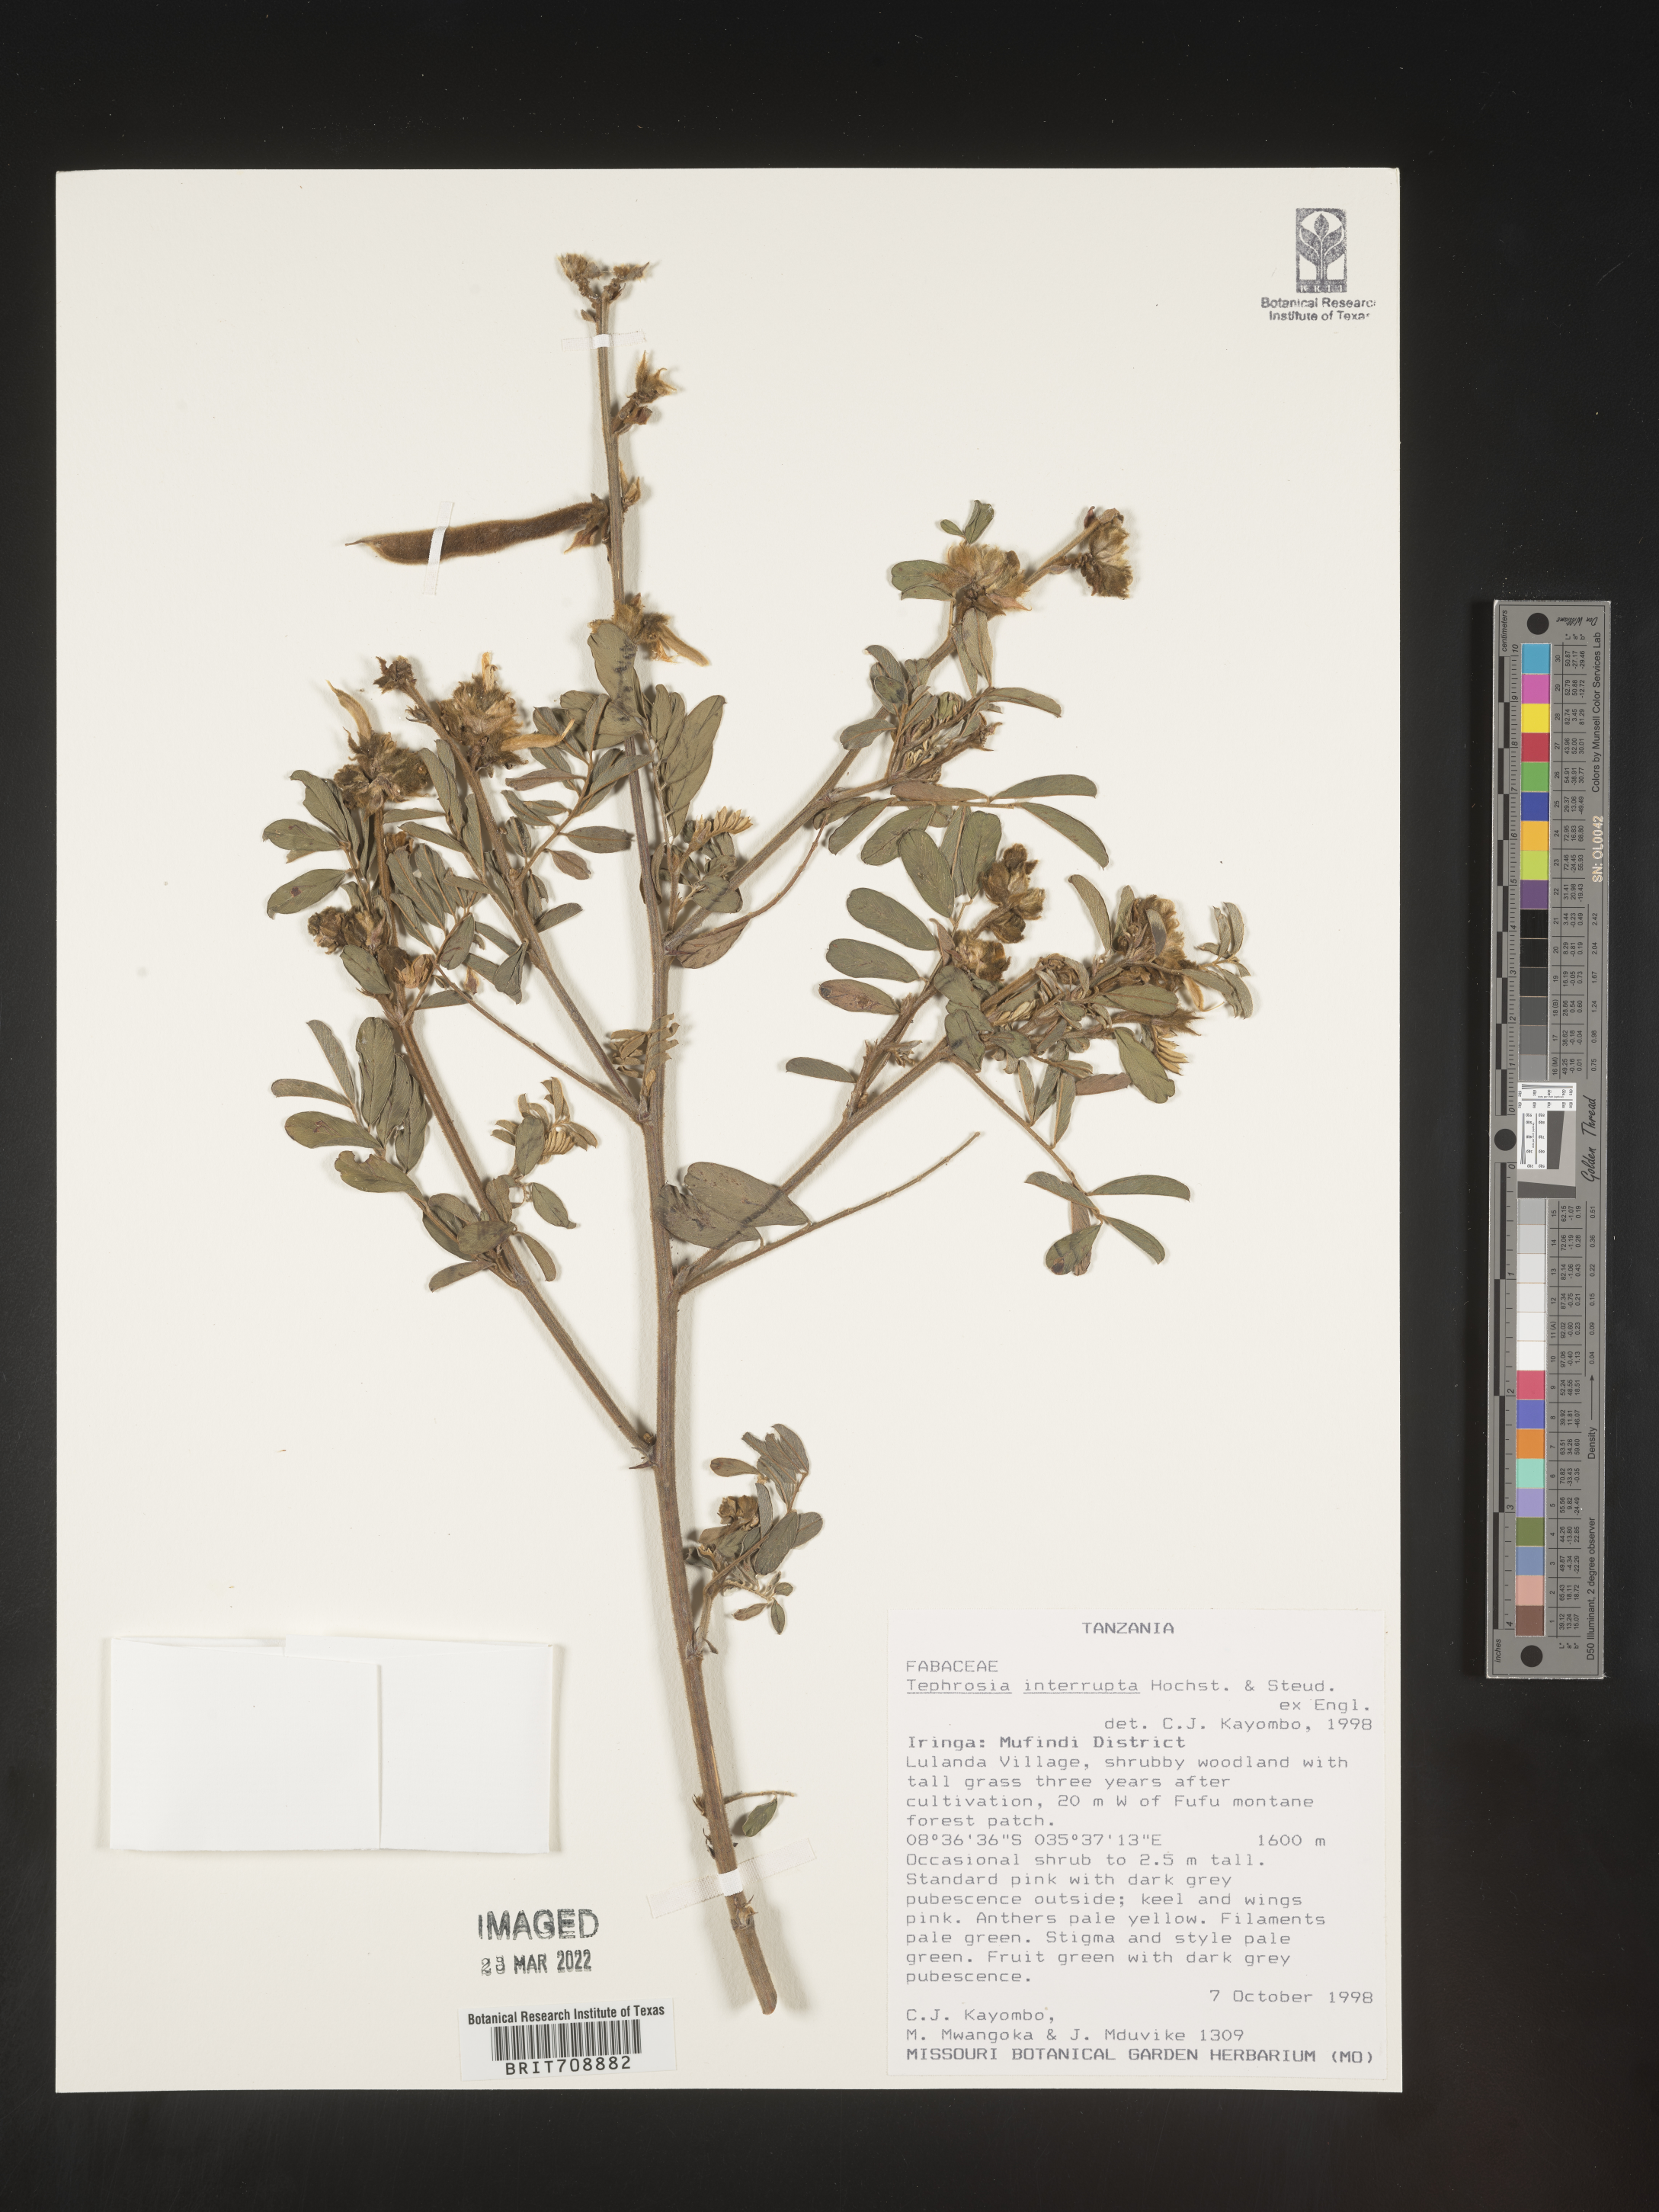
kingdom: Plantae
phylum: Tracheophyta
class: Magnoliopsida
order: Fabales
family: Fabaceae
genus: Tephrosia
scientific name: Tephrosia
